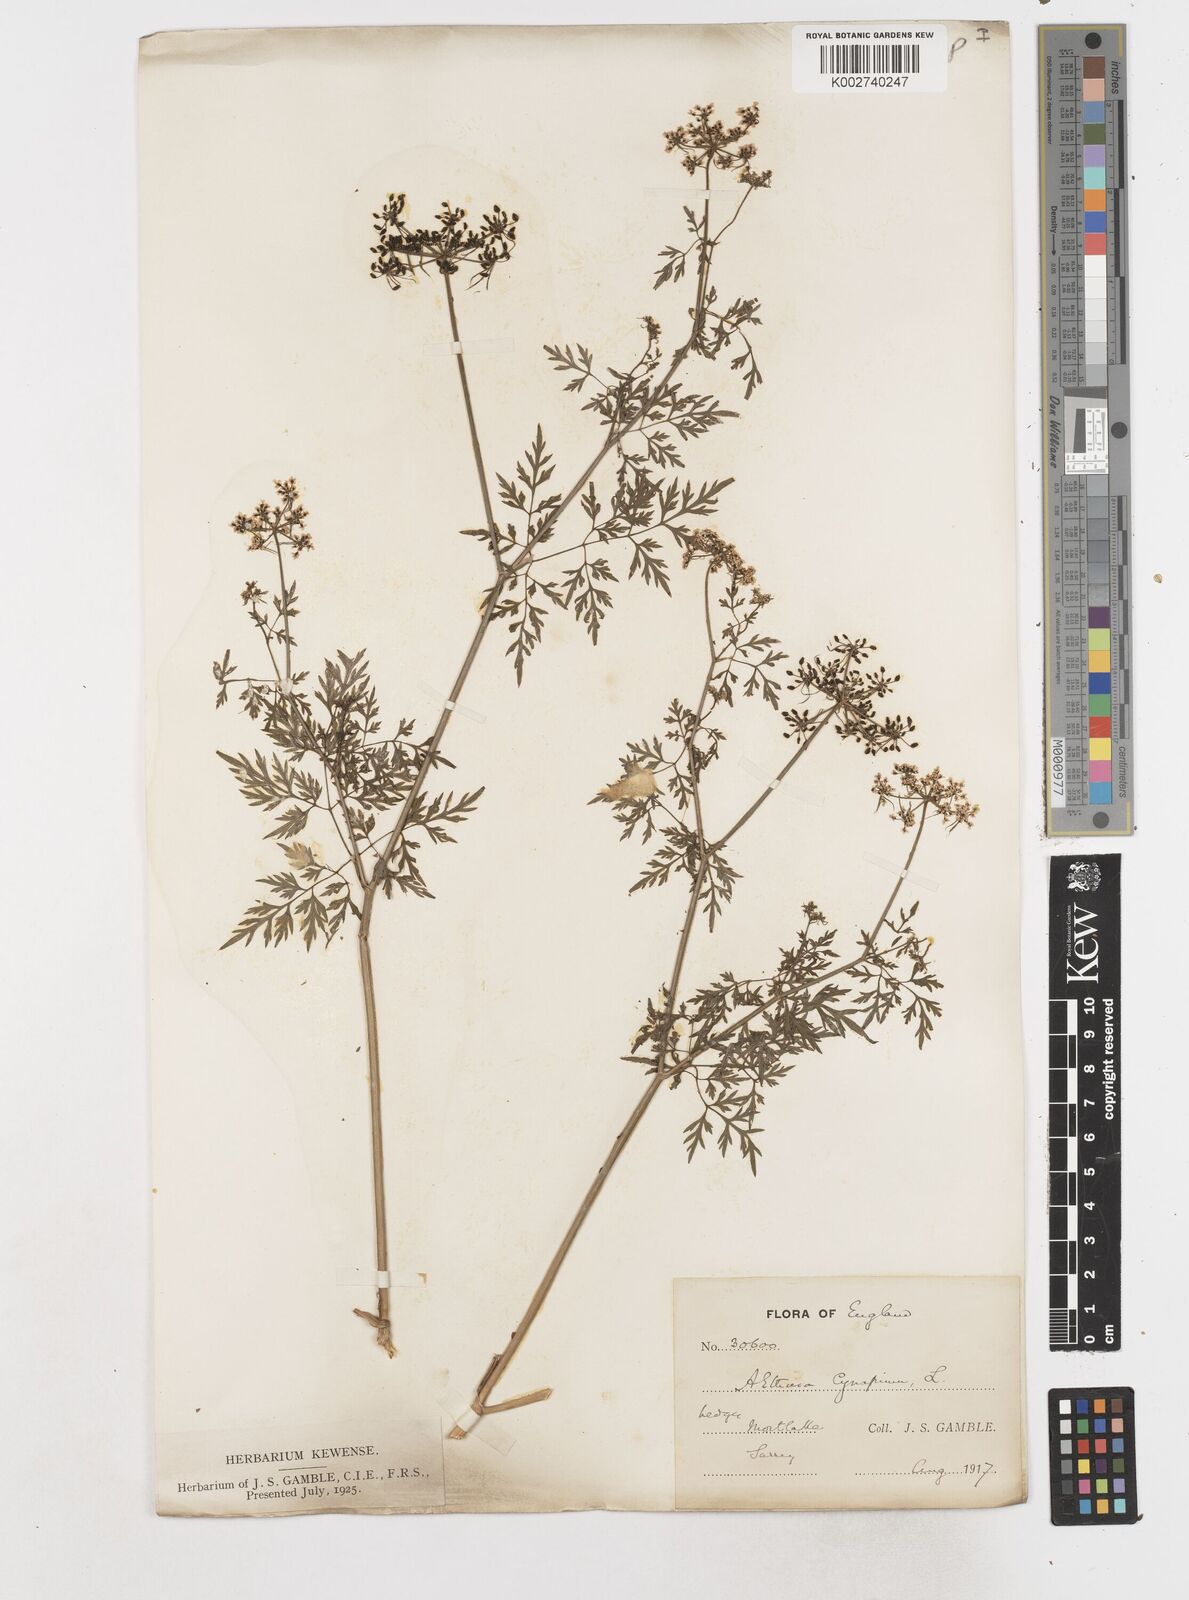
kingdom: Plantae
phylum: Tracheophyta
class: Magnoliopsida
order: Apiales
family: Apiaceae
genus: Aethusa
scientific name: Aethusa cynapium
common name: Fool's parsley
